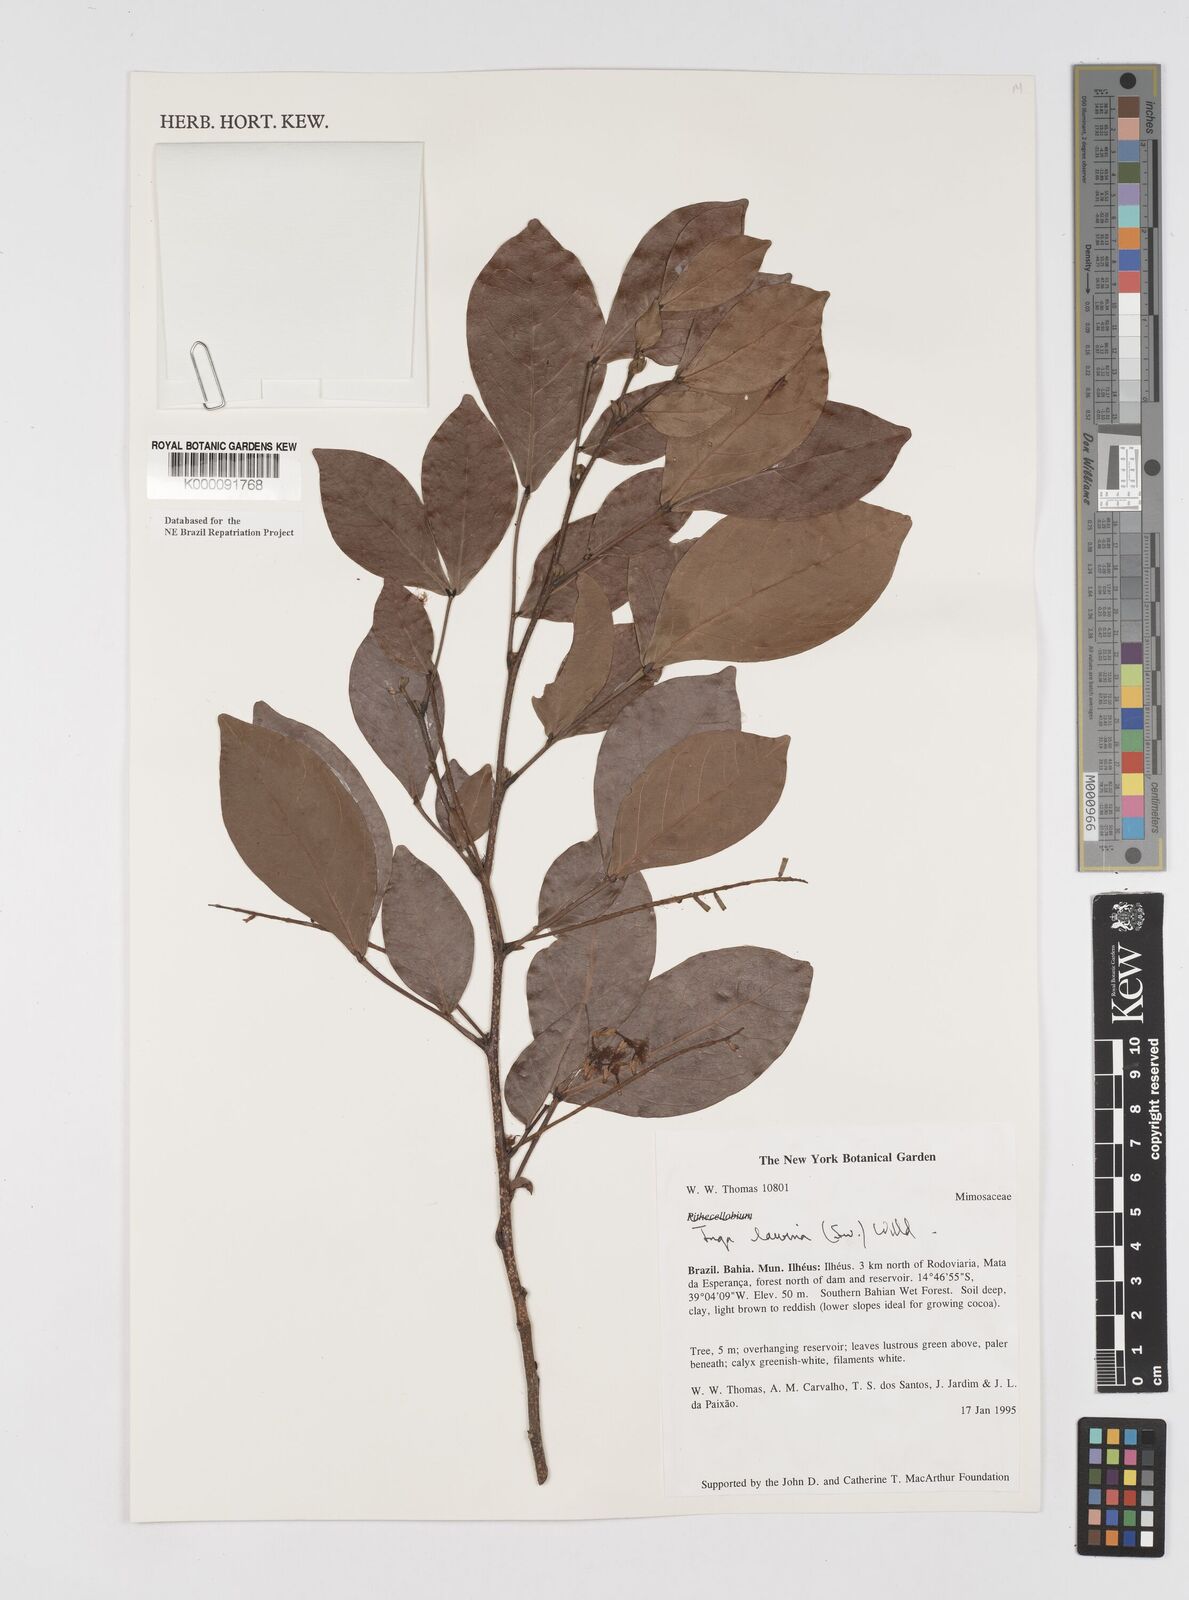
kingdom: Plantae
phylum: Tracheophyta
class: Magnoliopsida
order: Fabales
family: Fabaceae
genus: Inga
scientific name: Inga laurina
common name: Red wood
